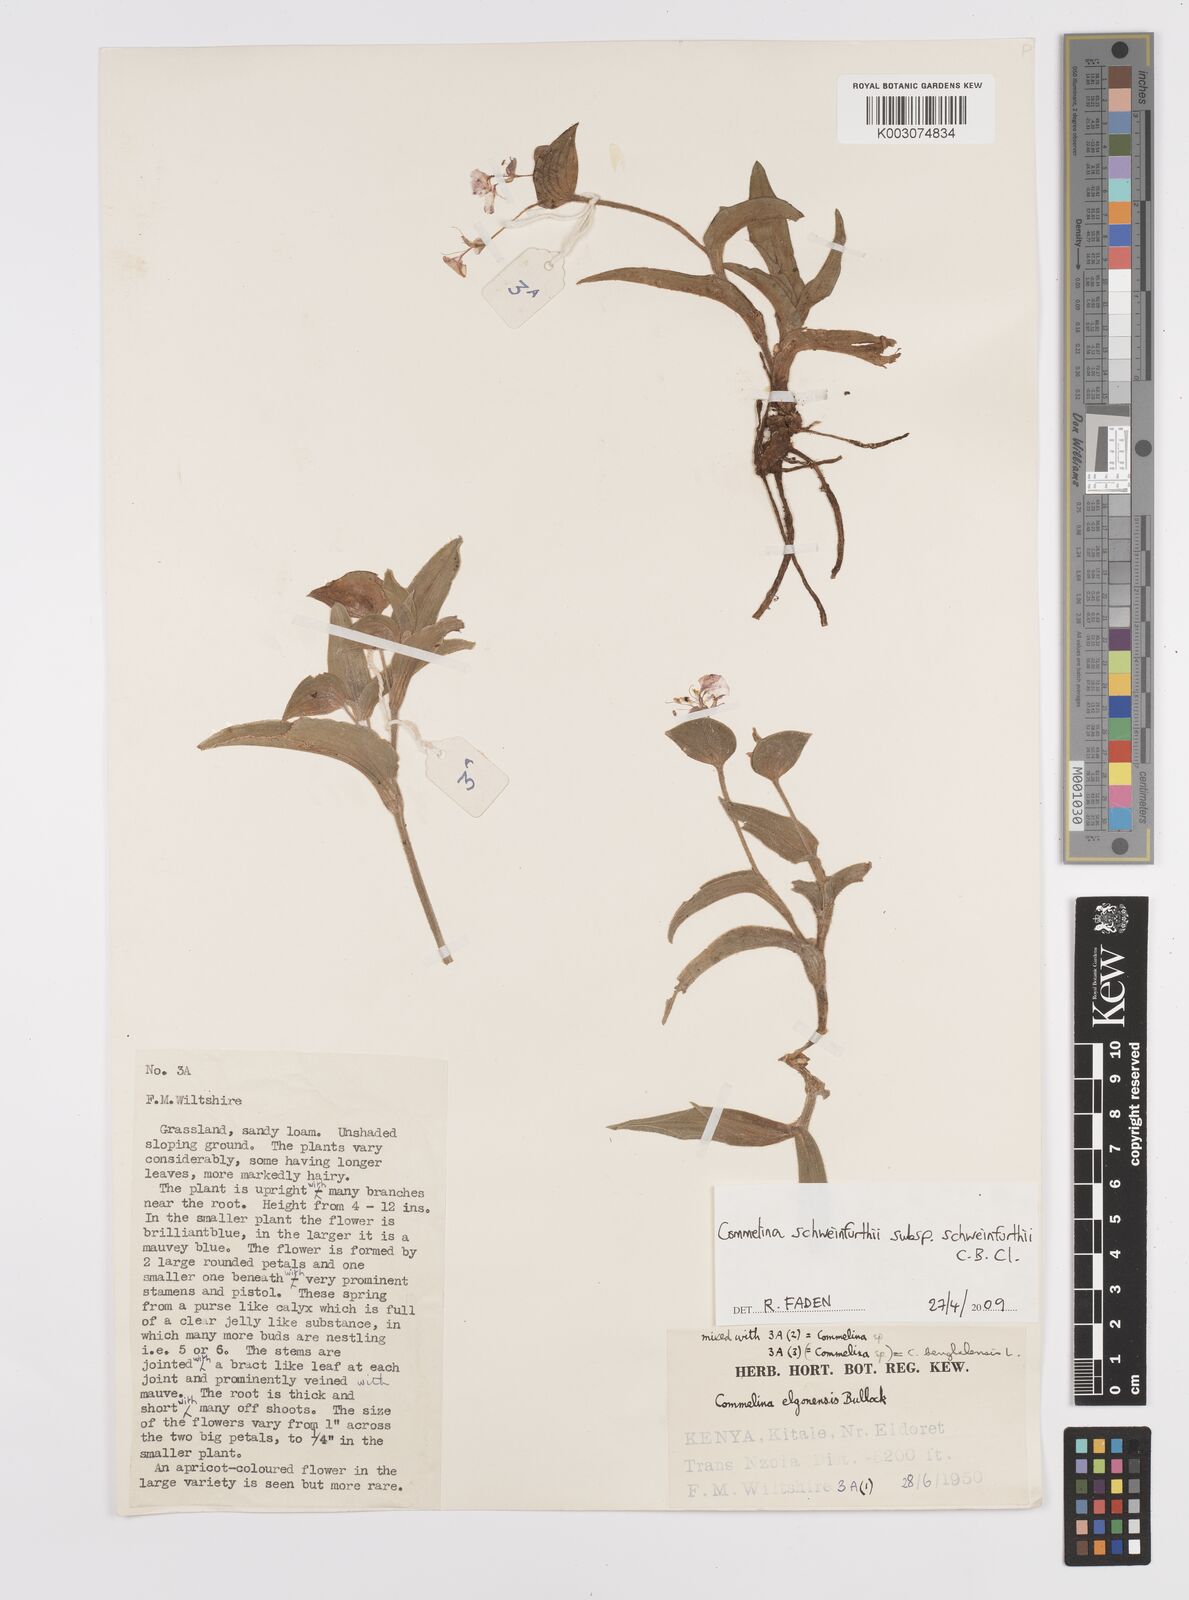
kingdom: Plantae
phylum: Tracheophyta
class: Liliopsida
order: Commelinales
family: Commelinaceae
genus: Commelina
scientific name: Commelina schweinfurthii
